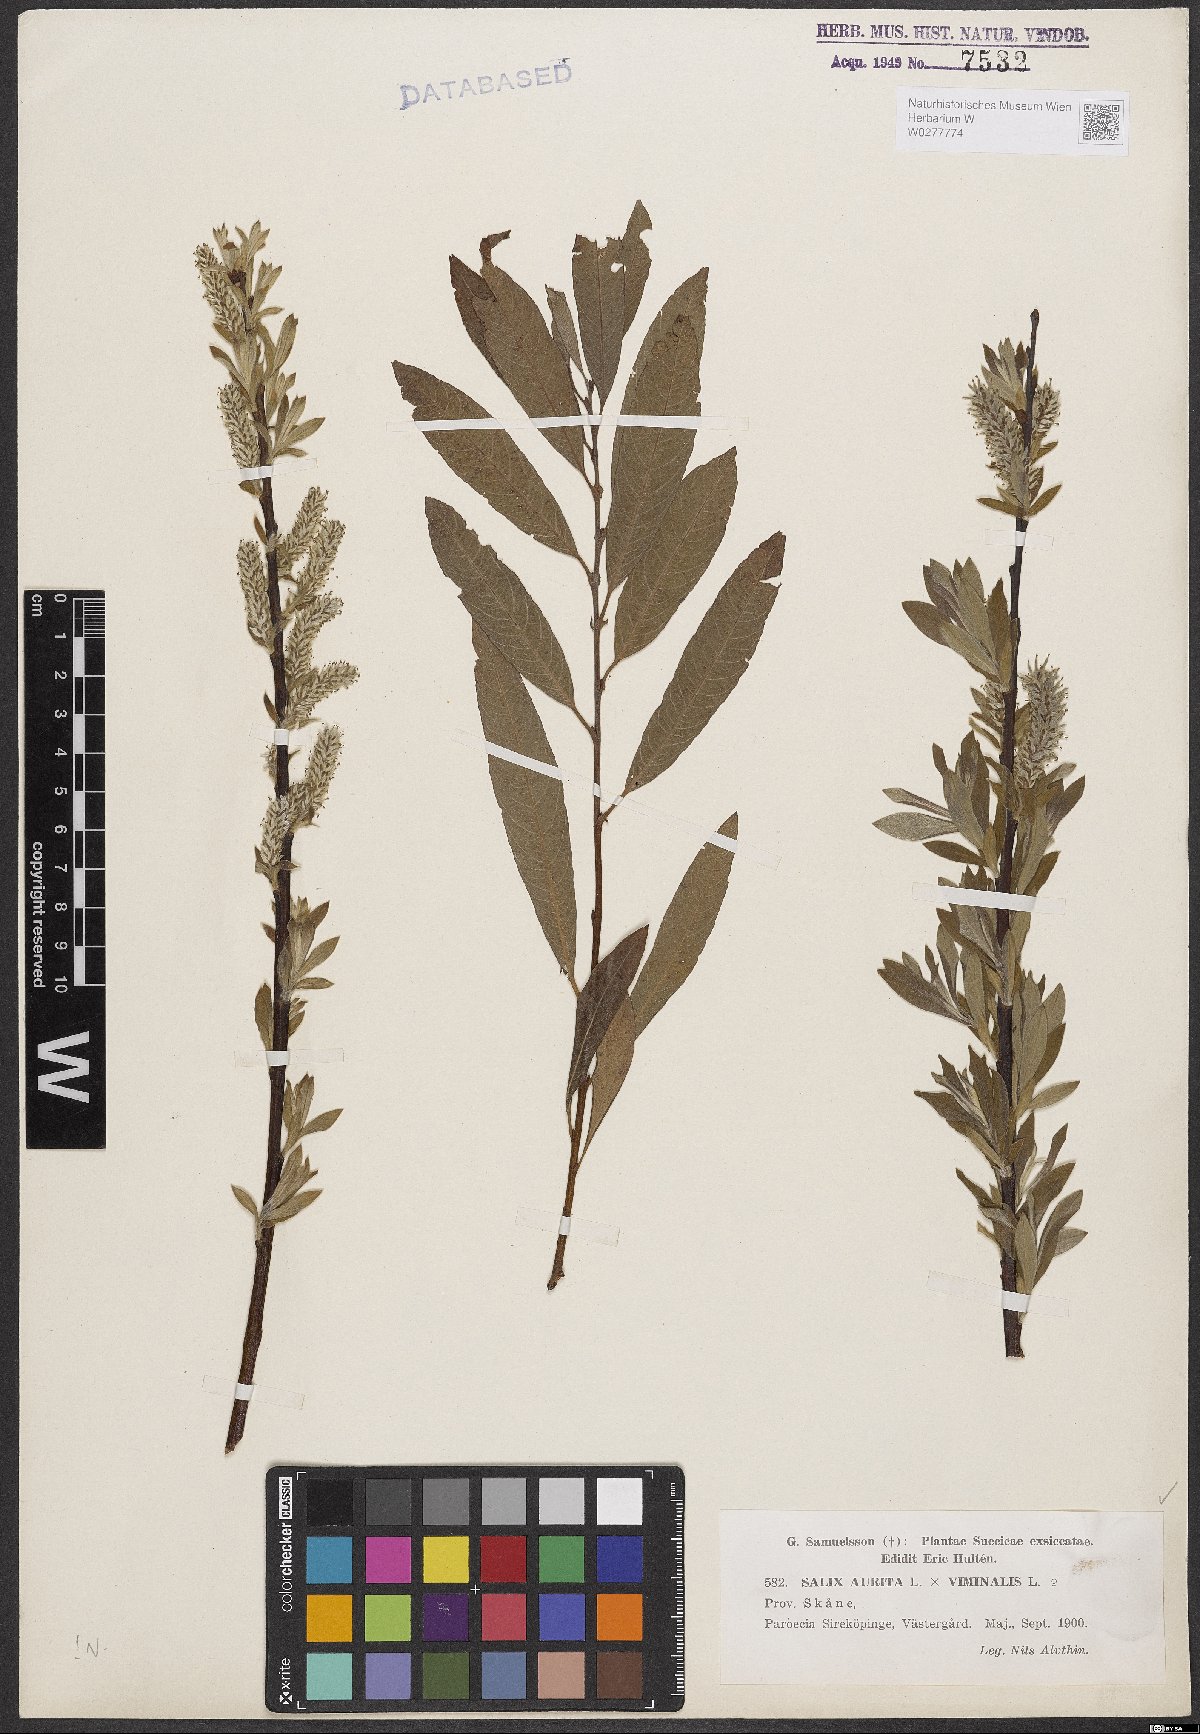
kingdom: Plantae
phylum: Tracheophyta
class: Magnoliopsida
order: Malpighiales
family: Salicaceae
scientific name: Salicaceae
